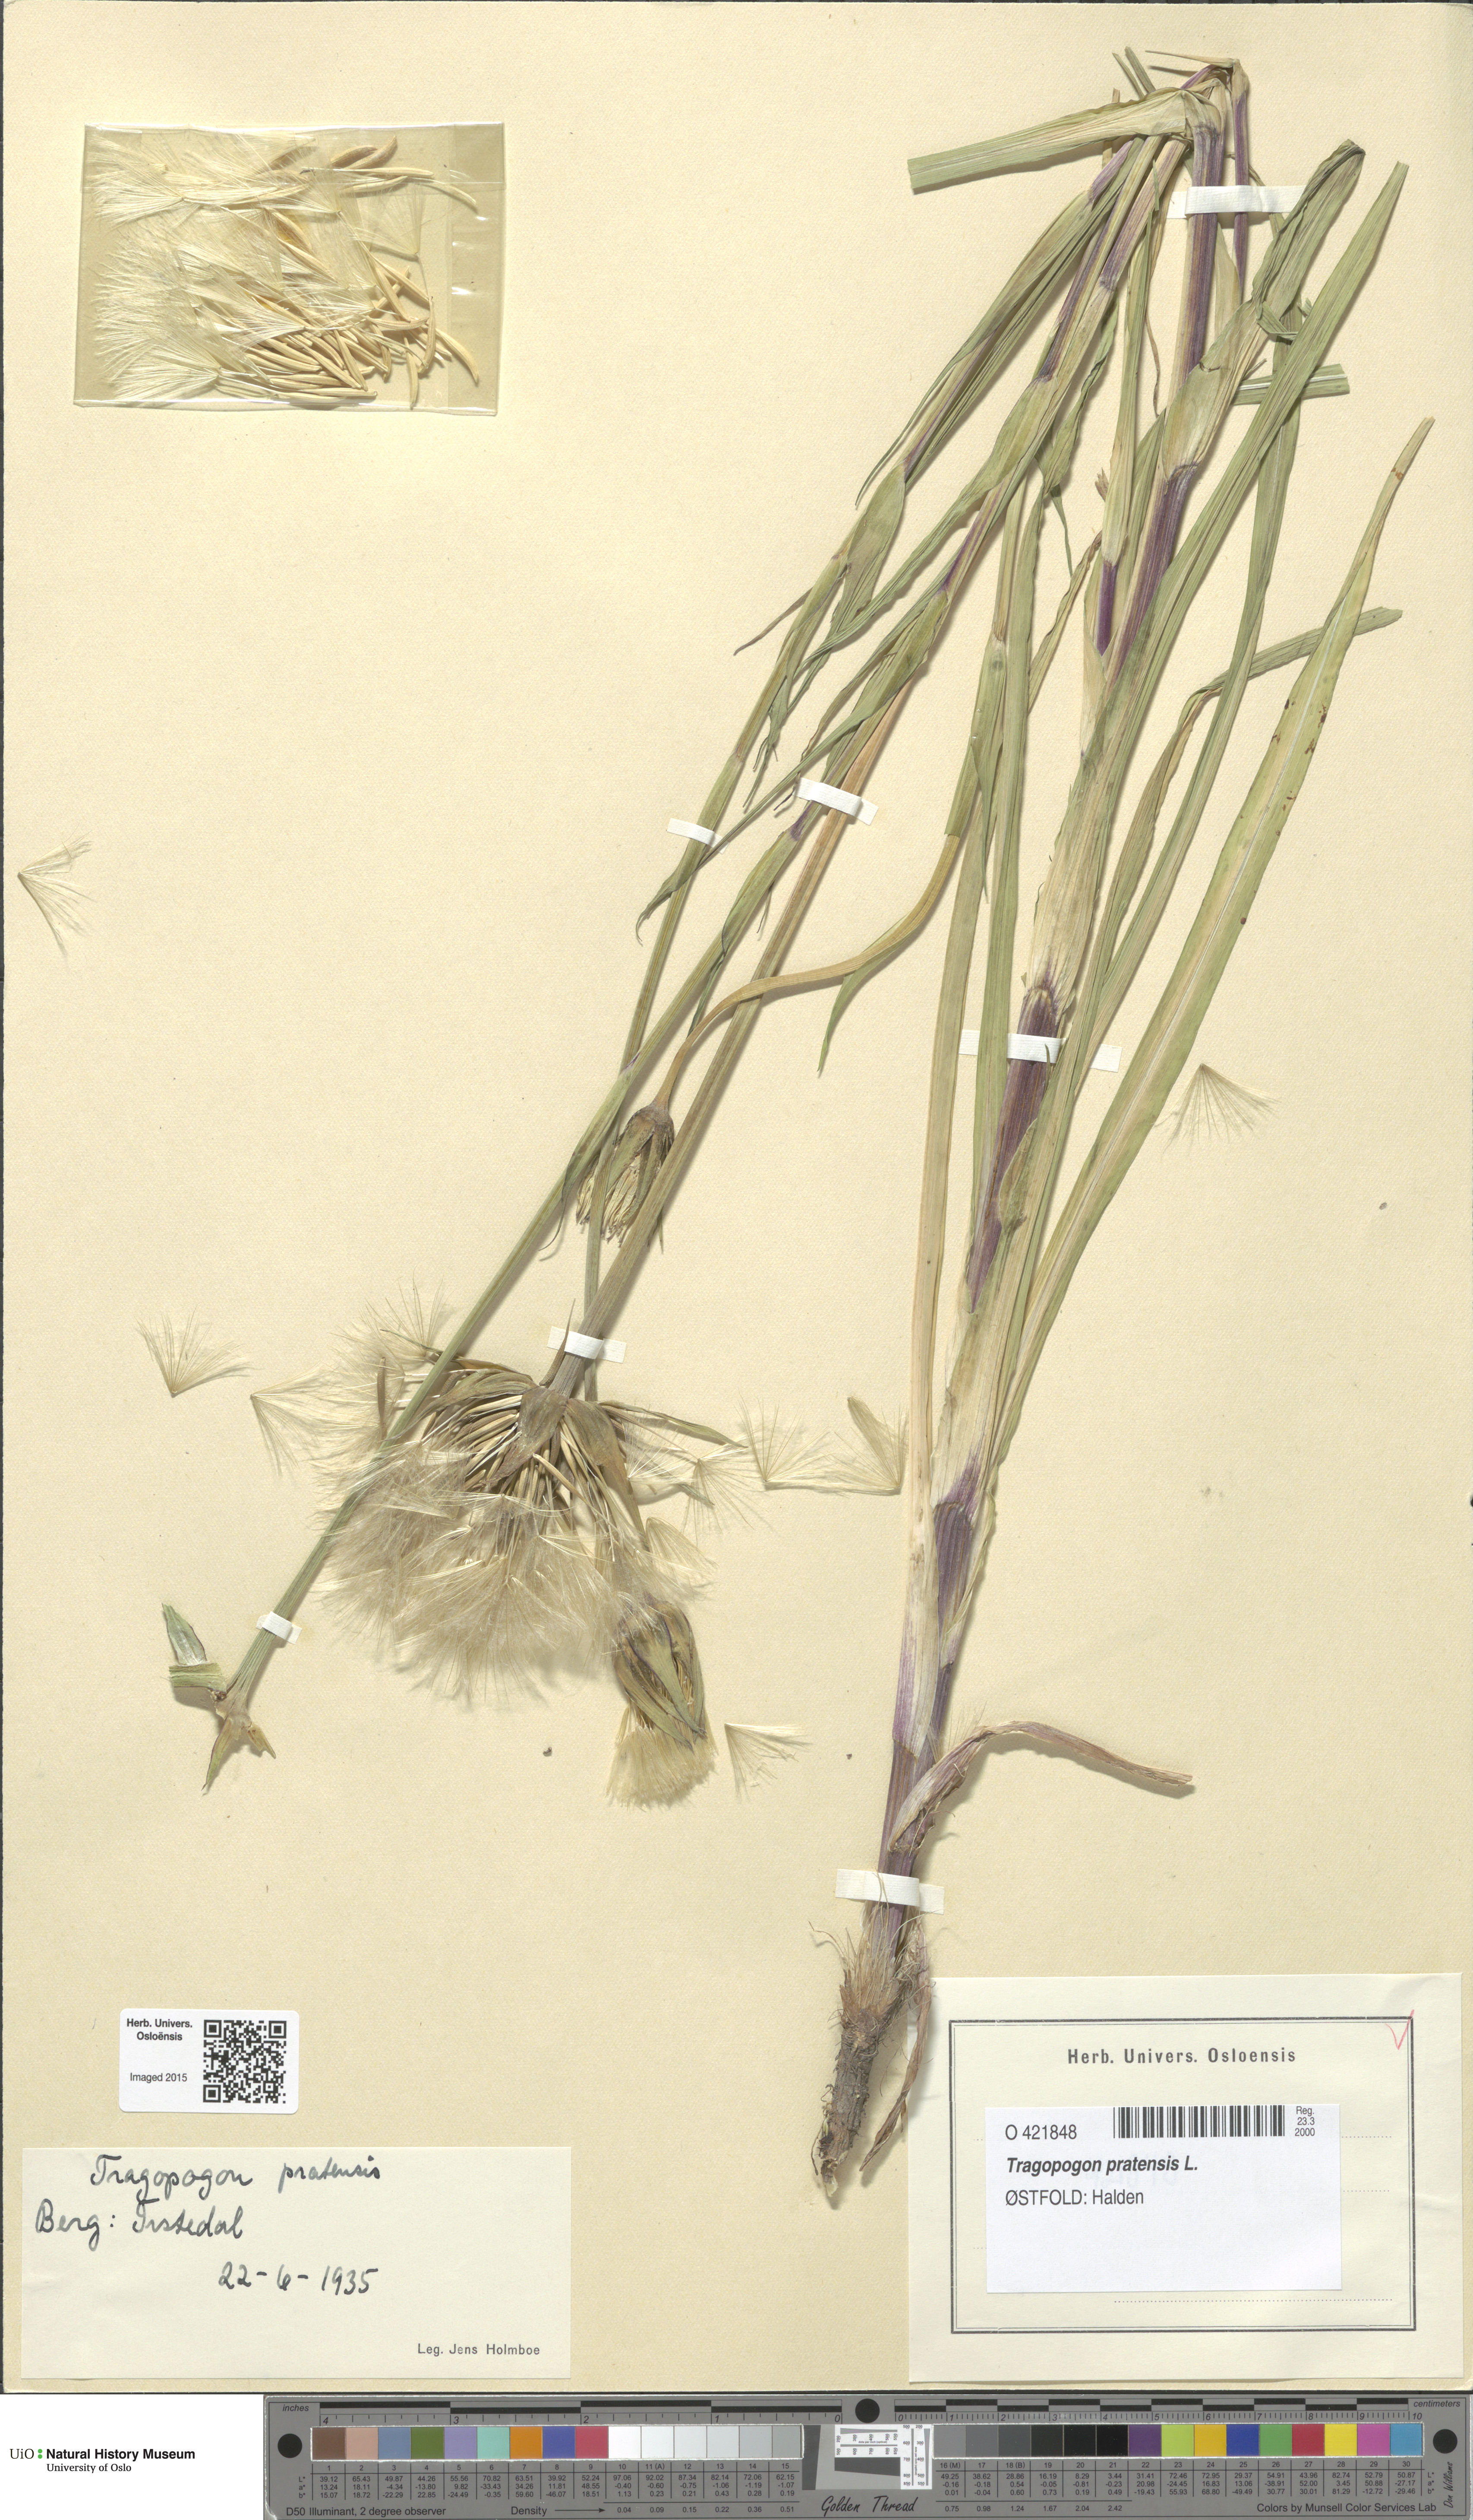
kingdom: Plantae
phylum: Tracheophyta
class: Magnoliopsida
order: Asterales
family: Asteraceae
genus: Tragopogon
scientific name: Tragopogon pratensis
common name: Goat's-beard
